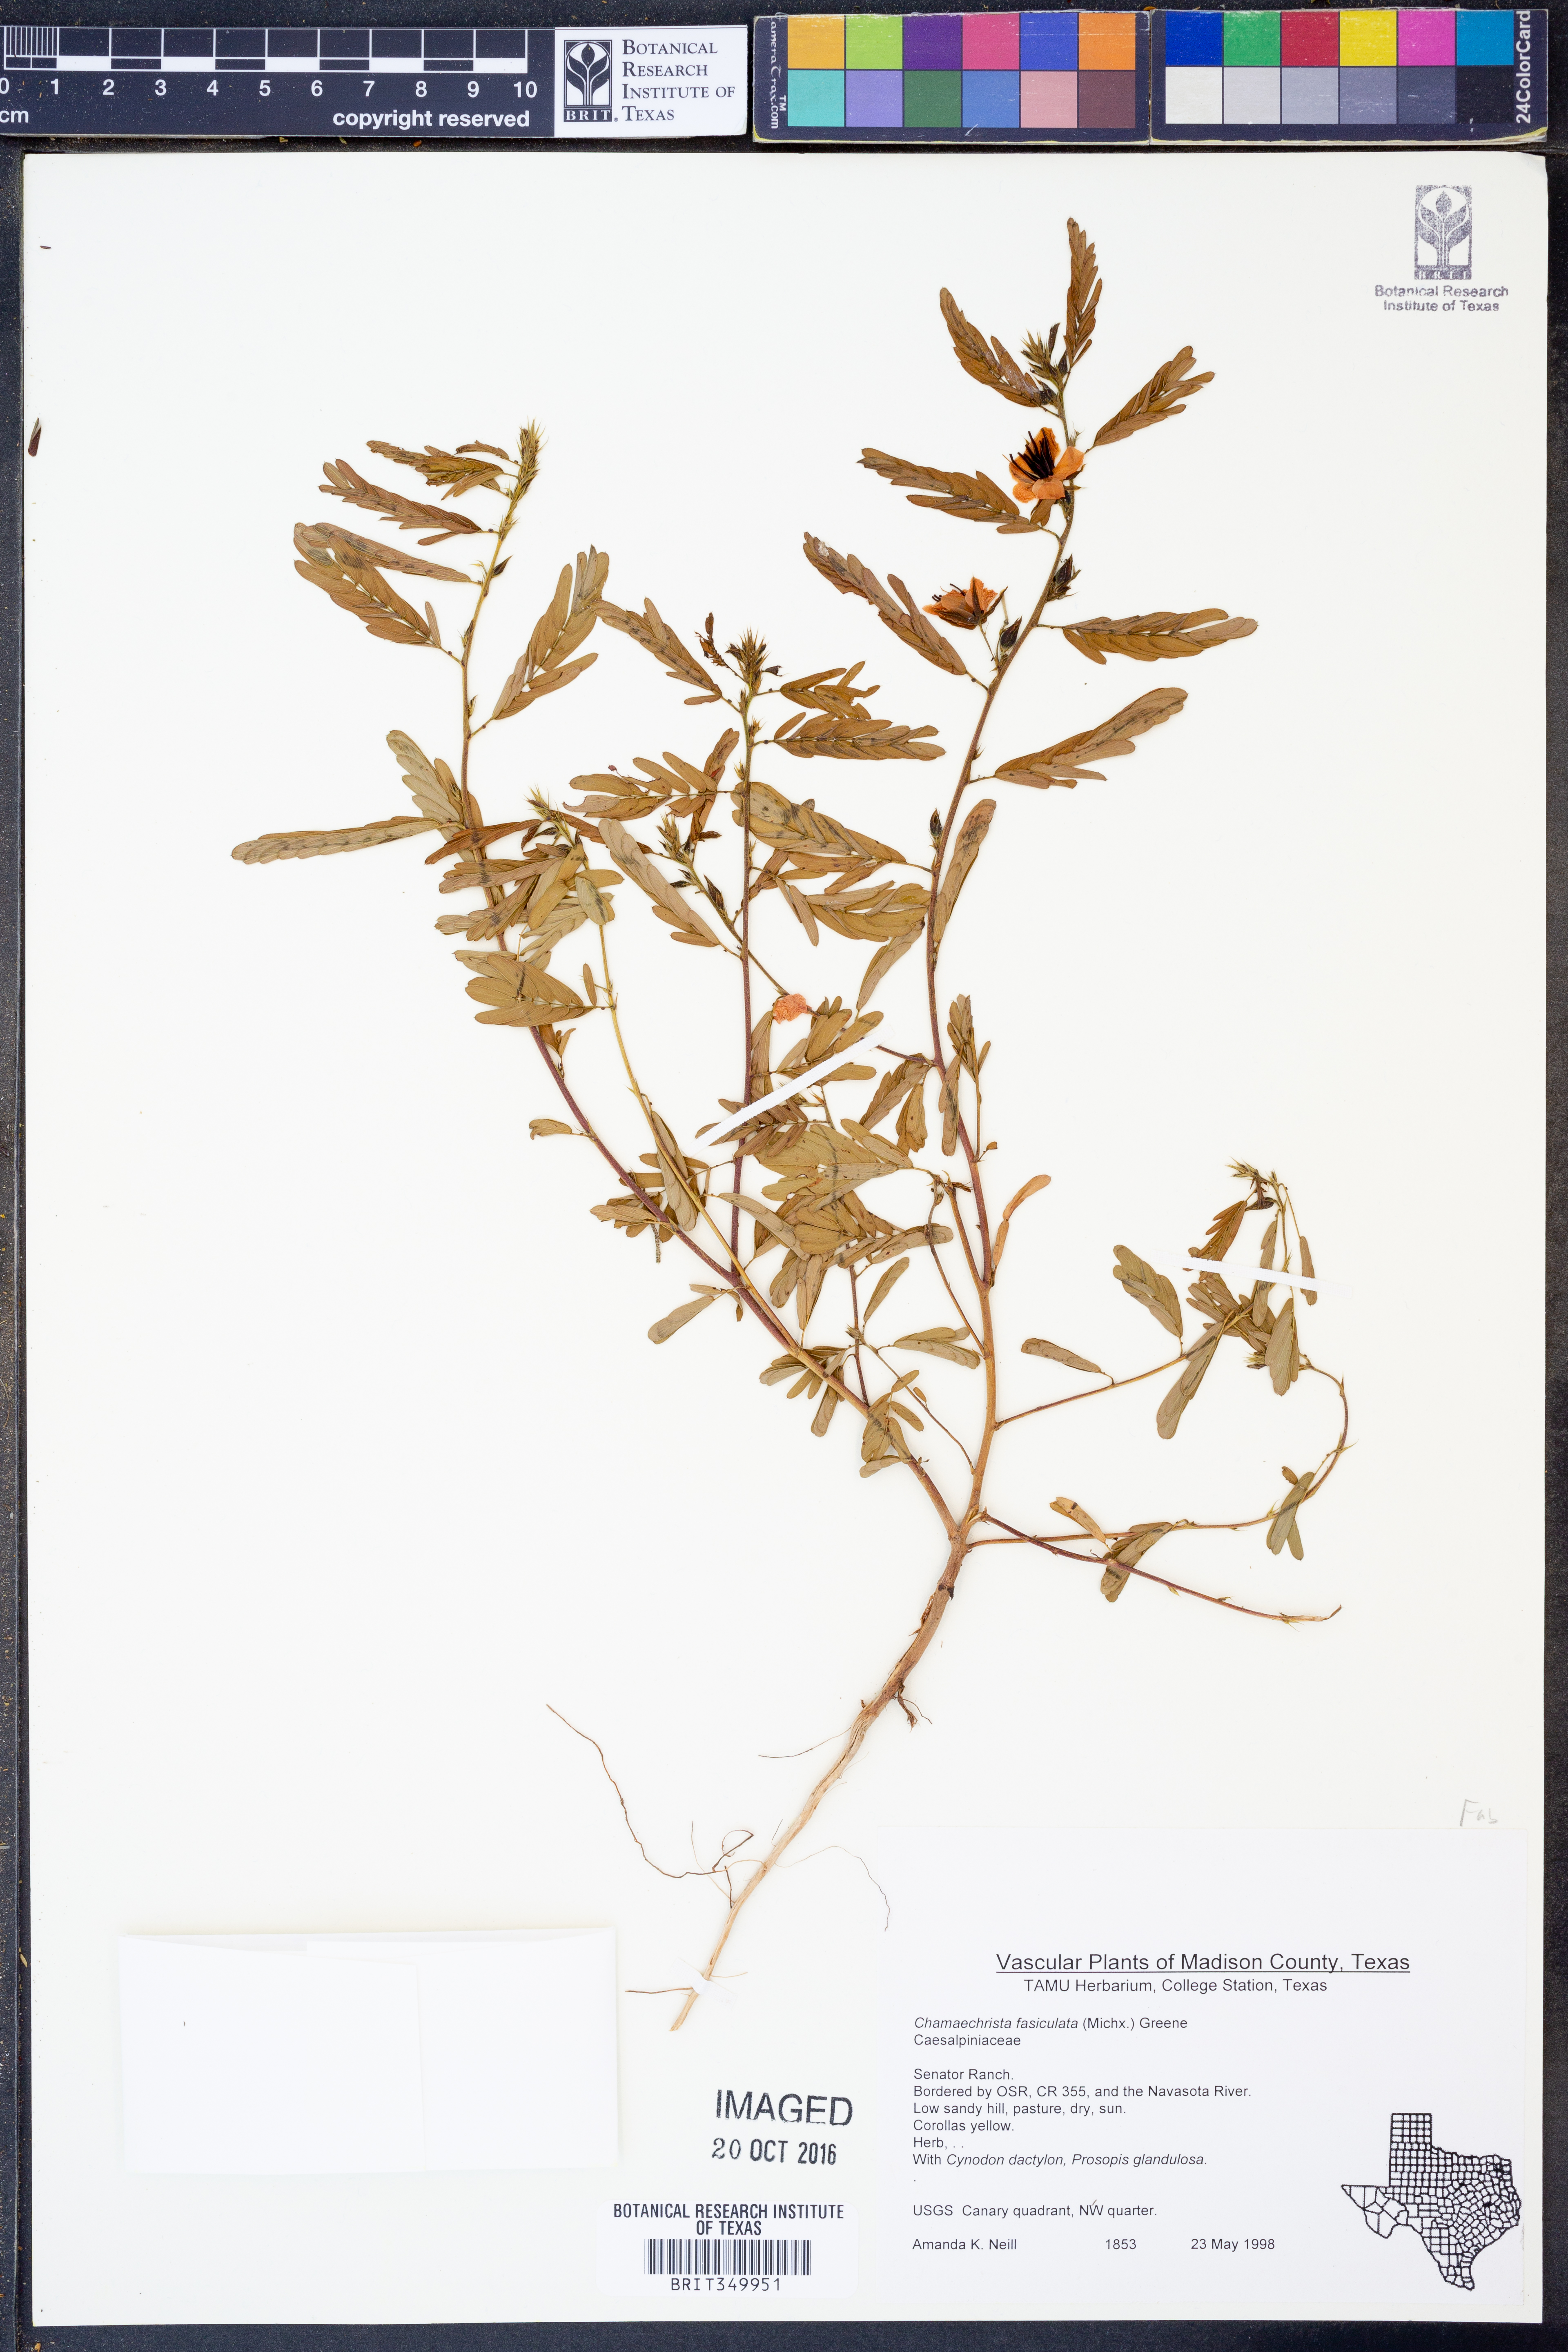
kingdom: Plantae
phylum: Tracheophyta
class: Magnoliopsida
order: Fabales
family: Fabaceae
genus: Chamaecrista
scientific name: Chamaecrista fasciculata
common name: Golden cassia
